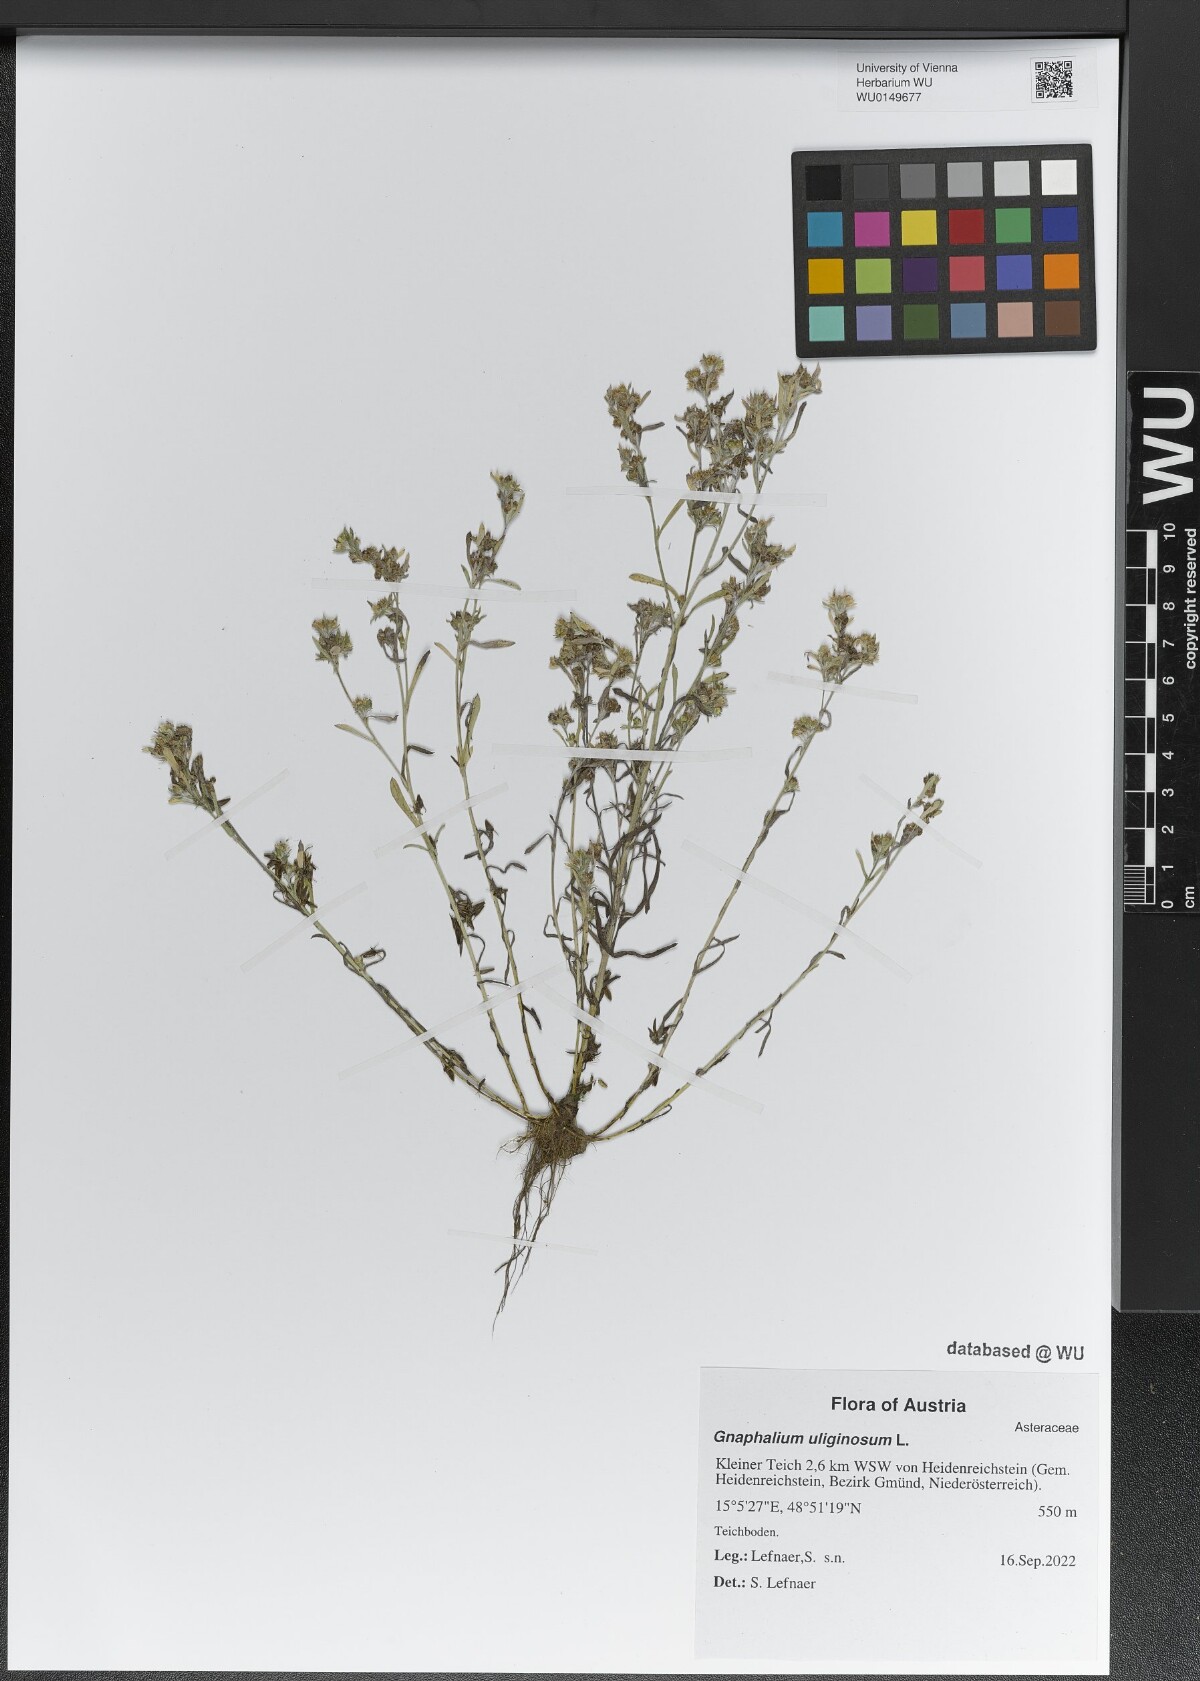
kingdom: Plantae
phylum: Tracheophyta
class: Magnoliopsida
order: Asterales
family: Asteraceae
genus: Gnaphalium
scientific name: Gnaphalium uliginosum
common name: Marsh cudweed
